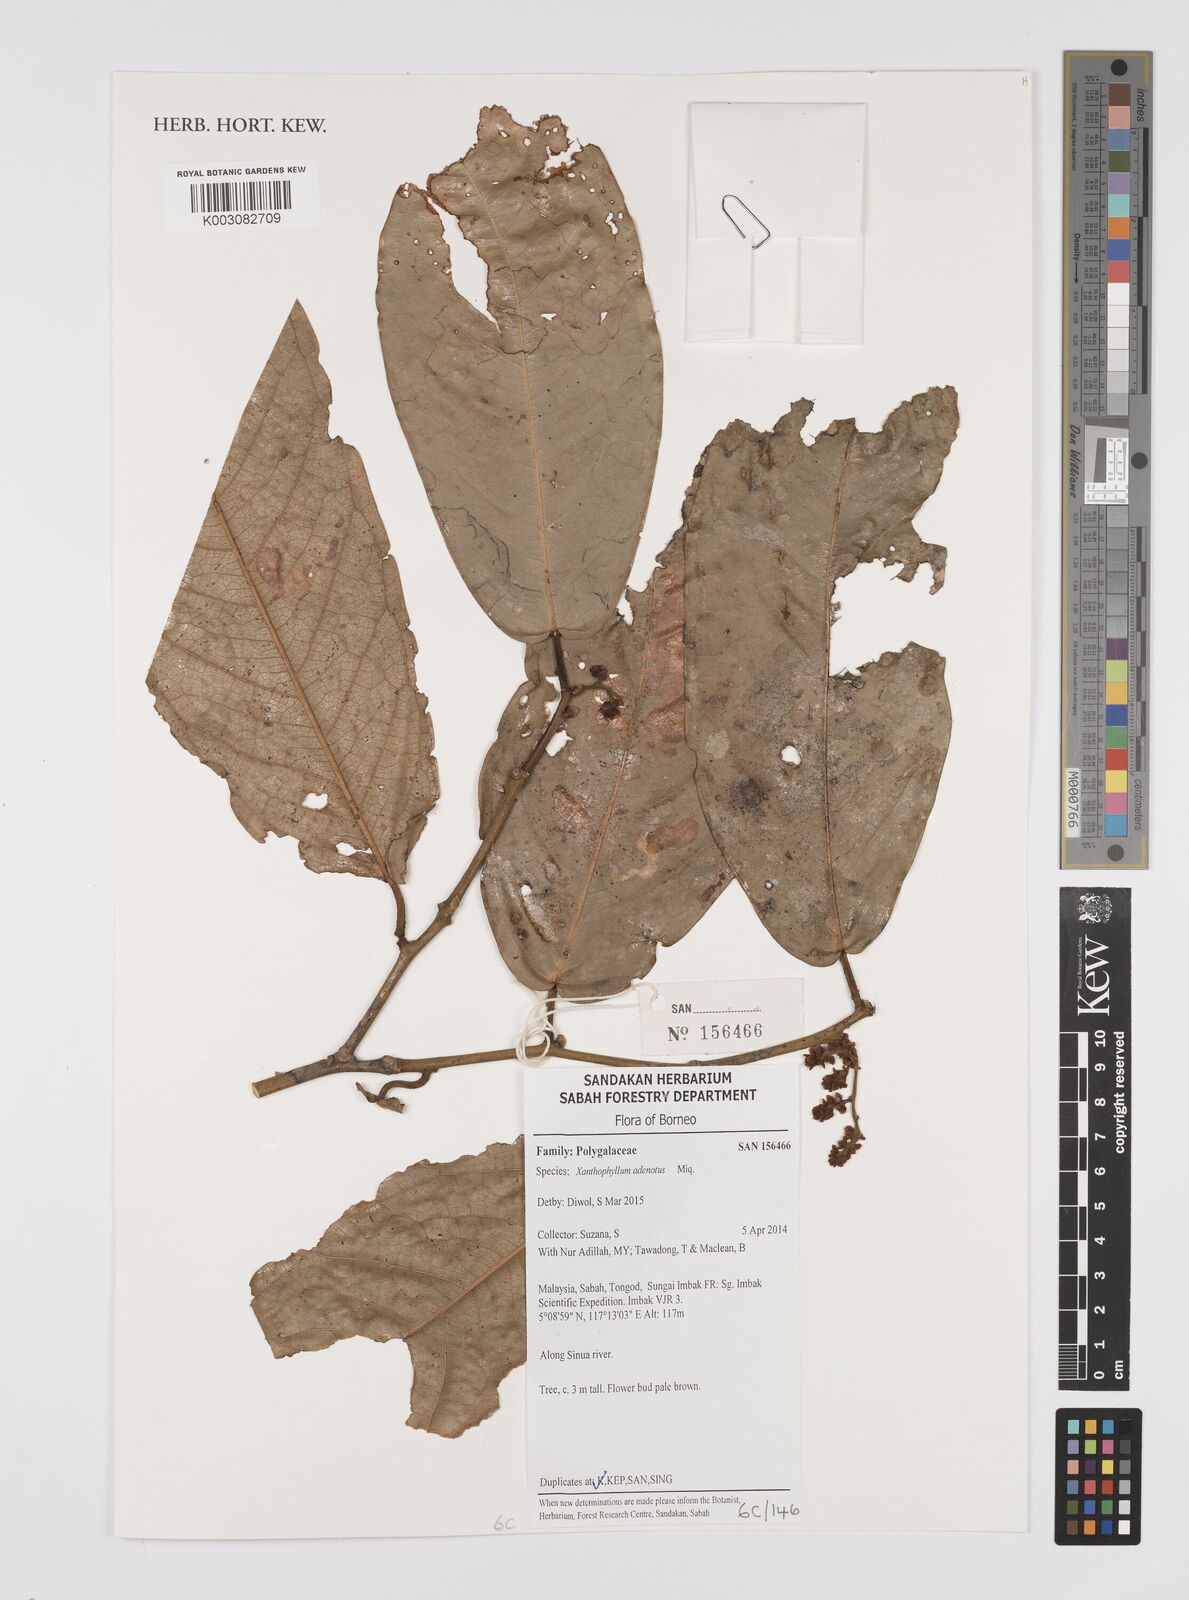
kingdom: Plantae
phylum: Tracheophyta
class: Magnoliopsida
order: Fabales
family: Polygalaceae
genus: Xanthophyllum
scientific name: Xanthophyllum adenotus
